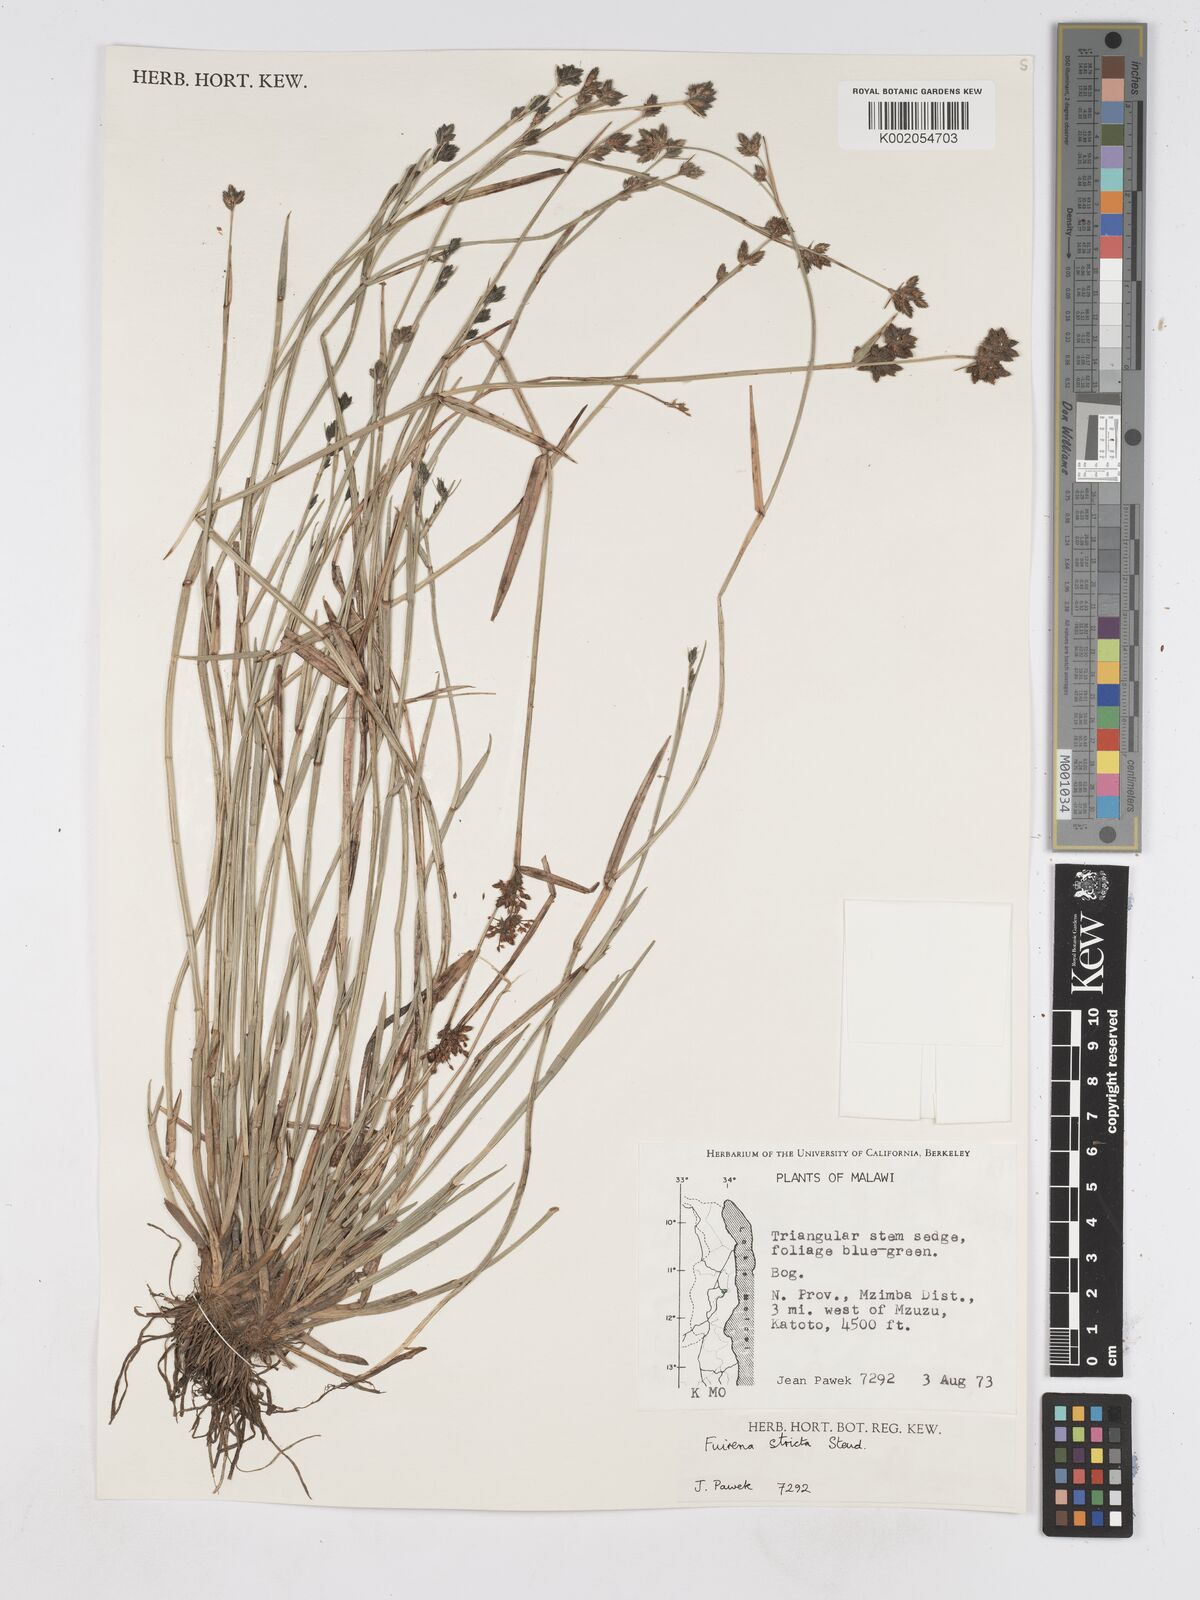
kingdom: Plantae
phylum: Tracheophyta
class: Liliopsida
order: Poales
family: Cyperaceae
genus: Fuirena
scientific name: Fuirena stricta
